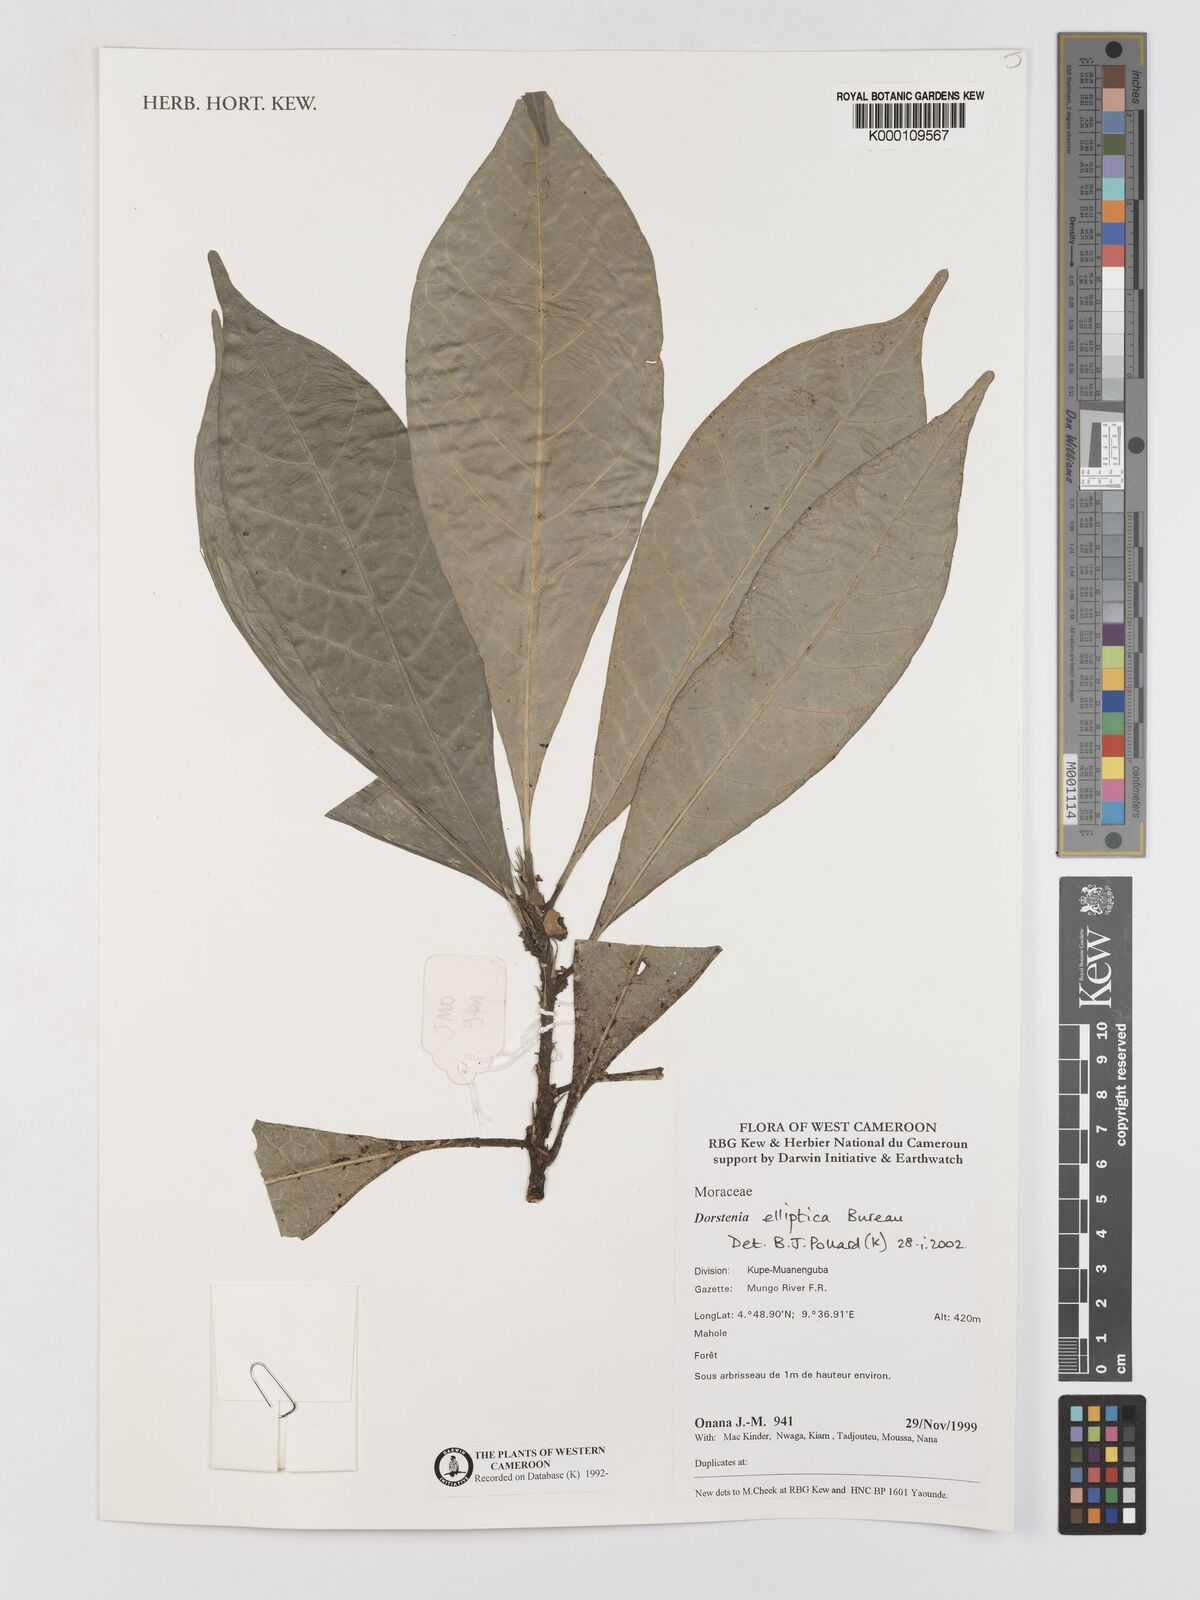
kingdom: Plantae
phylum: Tracheophyta
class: Magnoliopsida
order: Rosales
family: Moraceae
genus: Dorstenia
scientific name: Dorstenia elliptica
